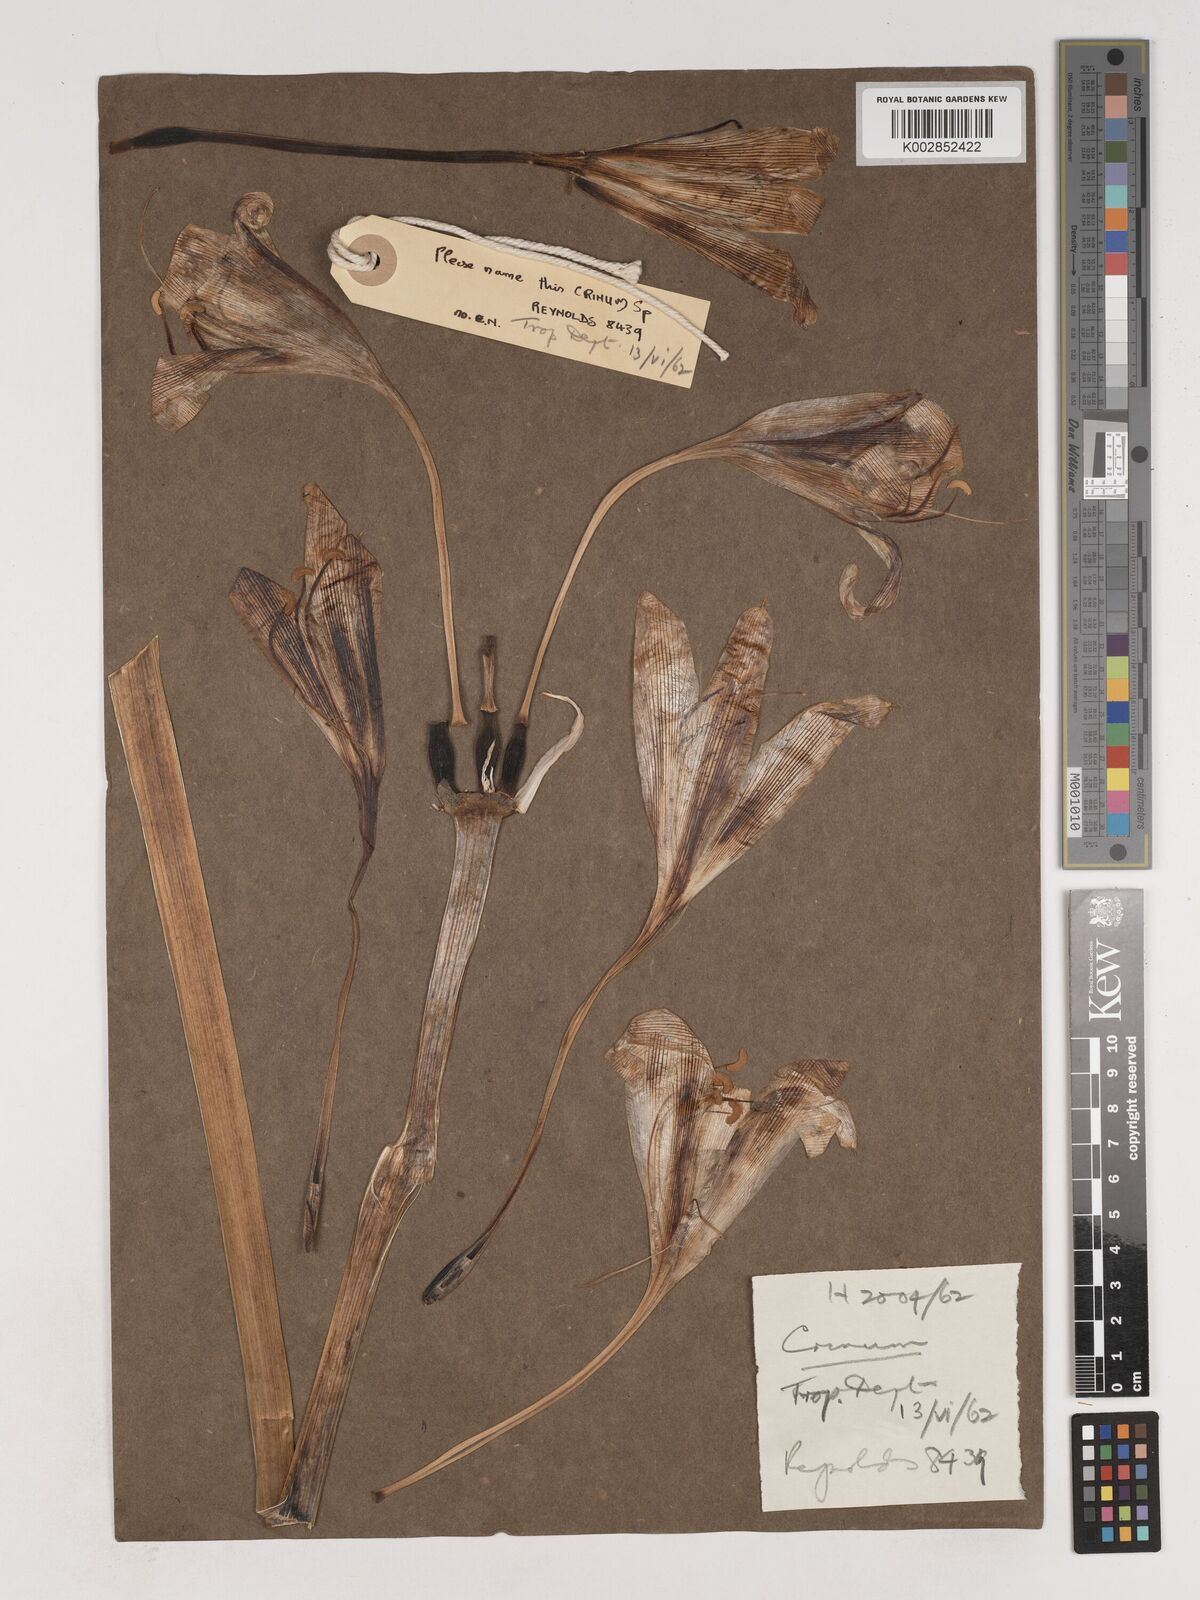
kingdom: Plantae
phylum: Tracheophyta
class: Liliopsida
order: Asparagales
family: Amaryllidaceae
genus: Crinum
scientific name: Crinum
